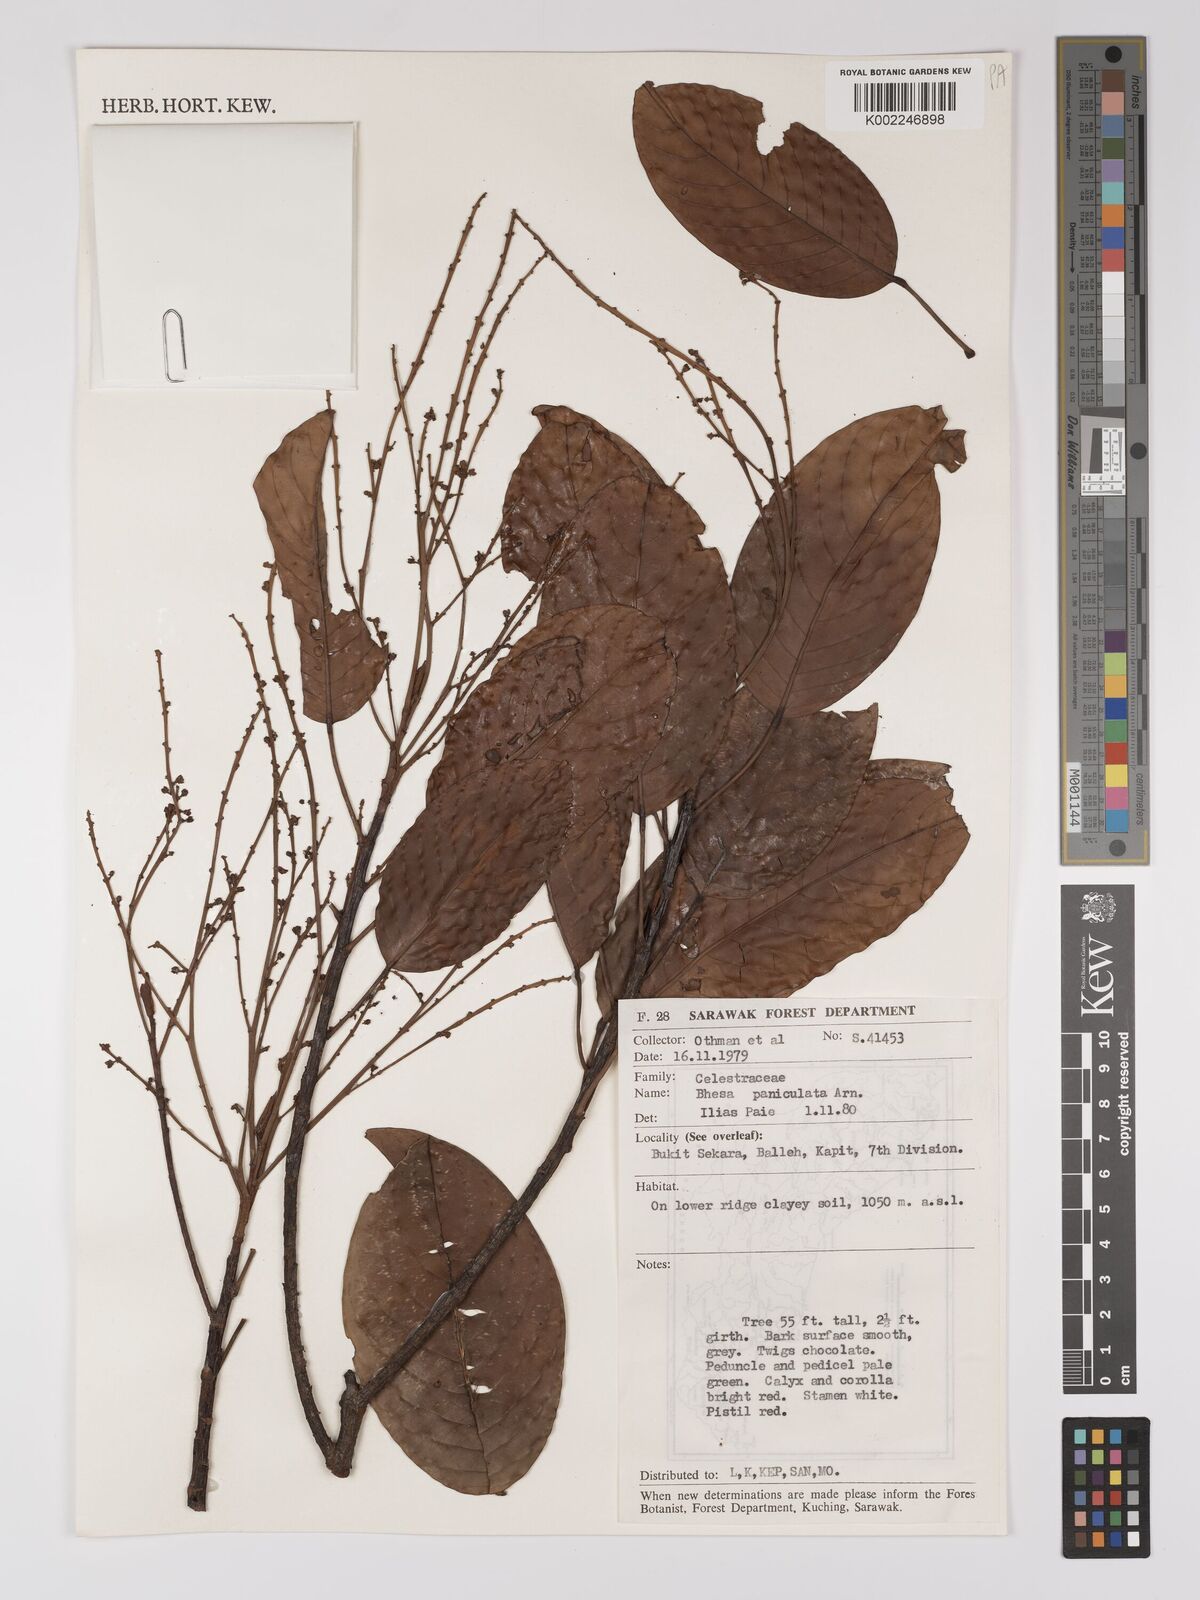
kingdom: Plantae
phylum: Tracheophyta
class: Magnoliopsida
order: Malpighiales
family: Centroplacaceae
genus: Bhesa
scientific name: Bhesa paniculata
